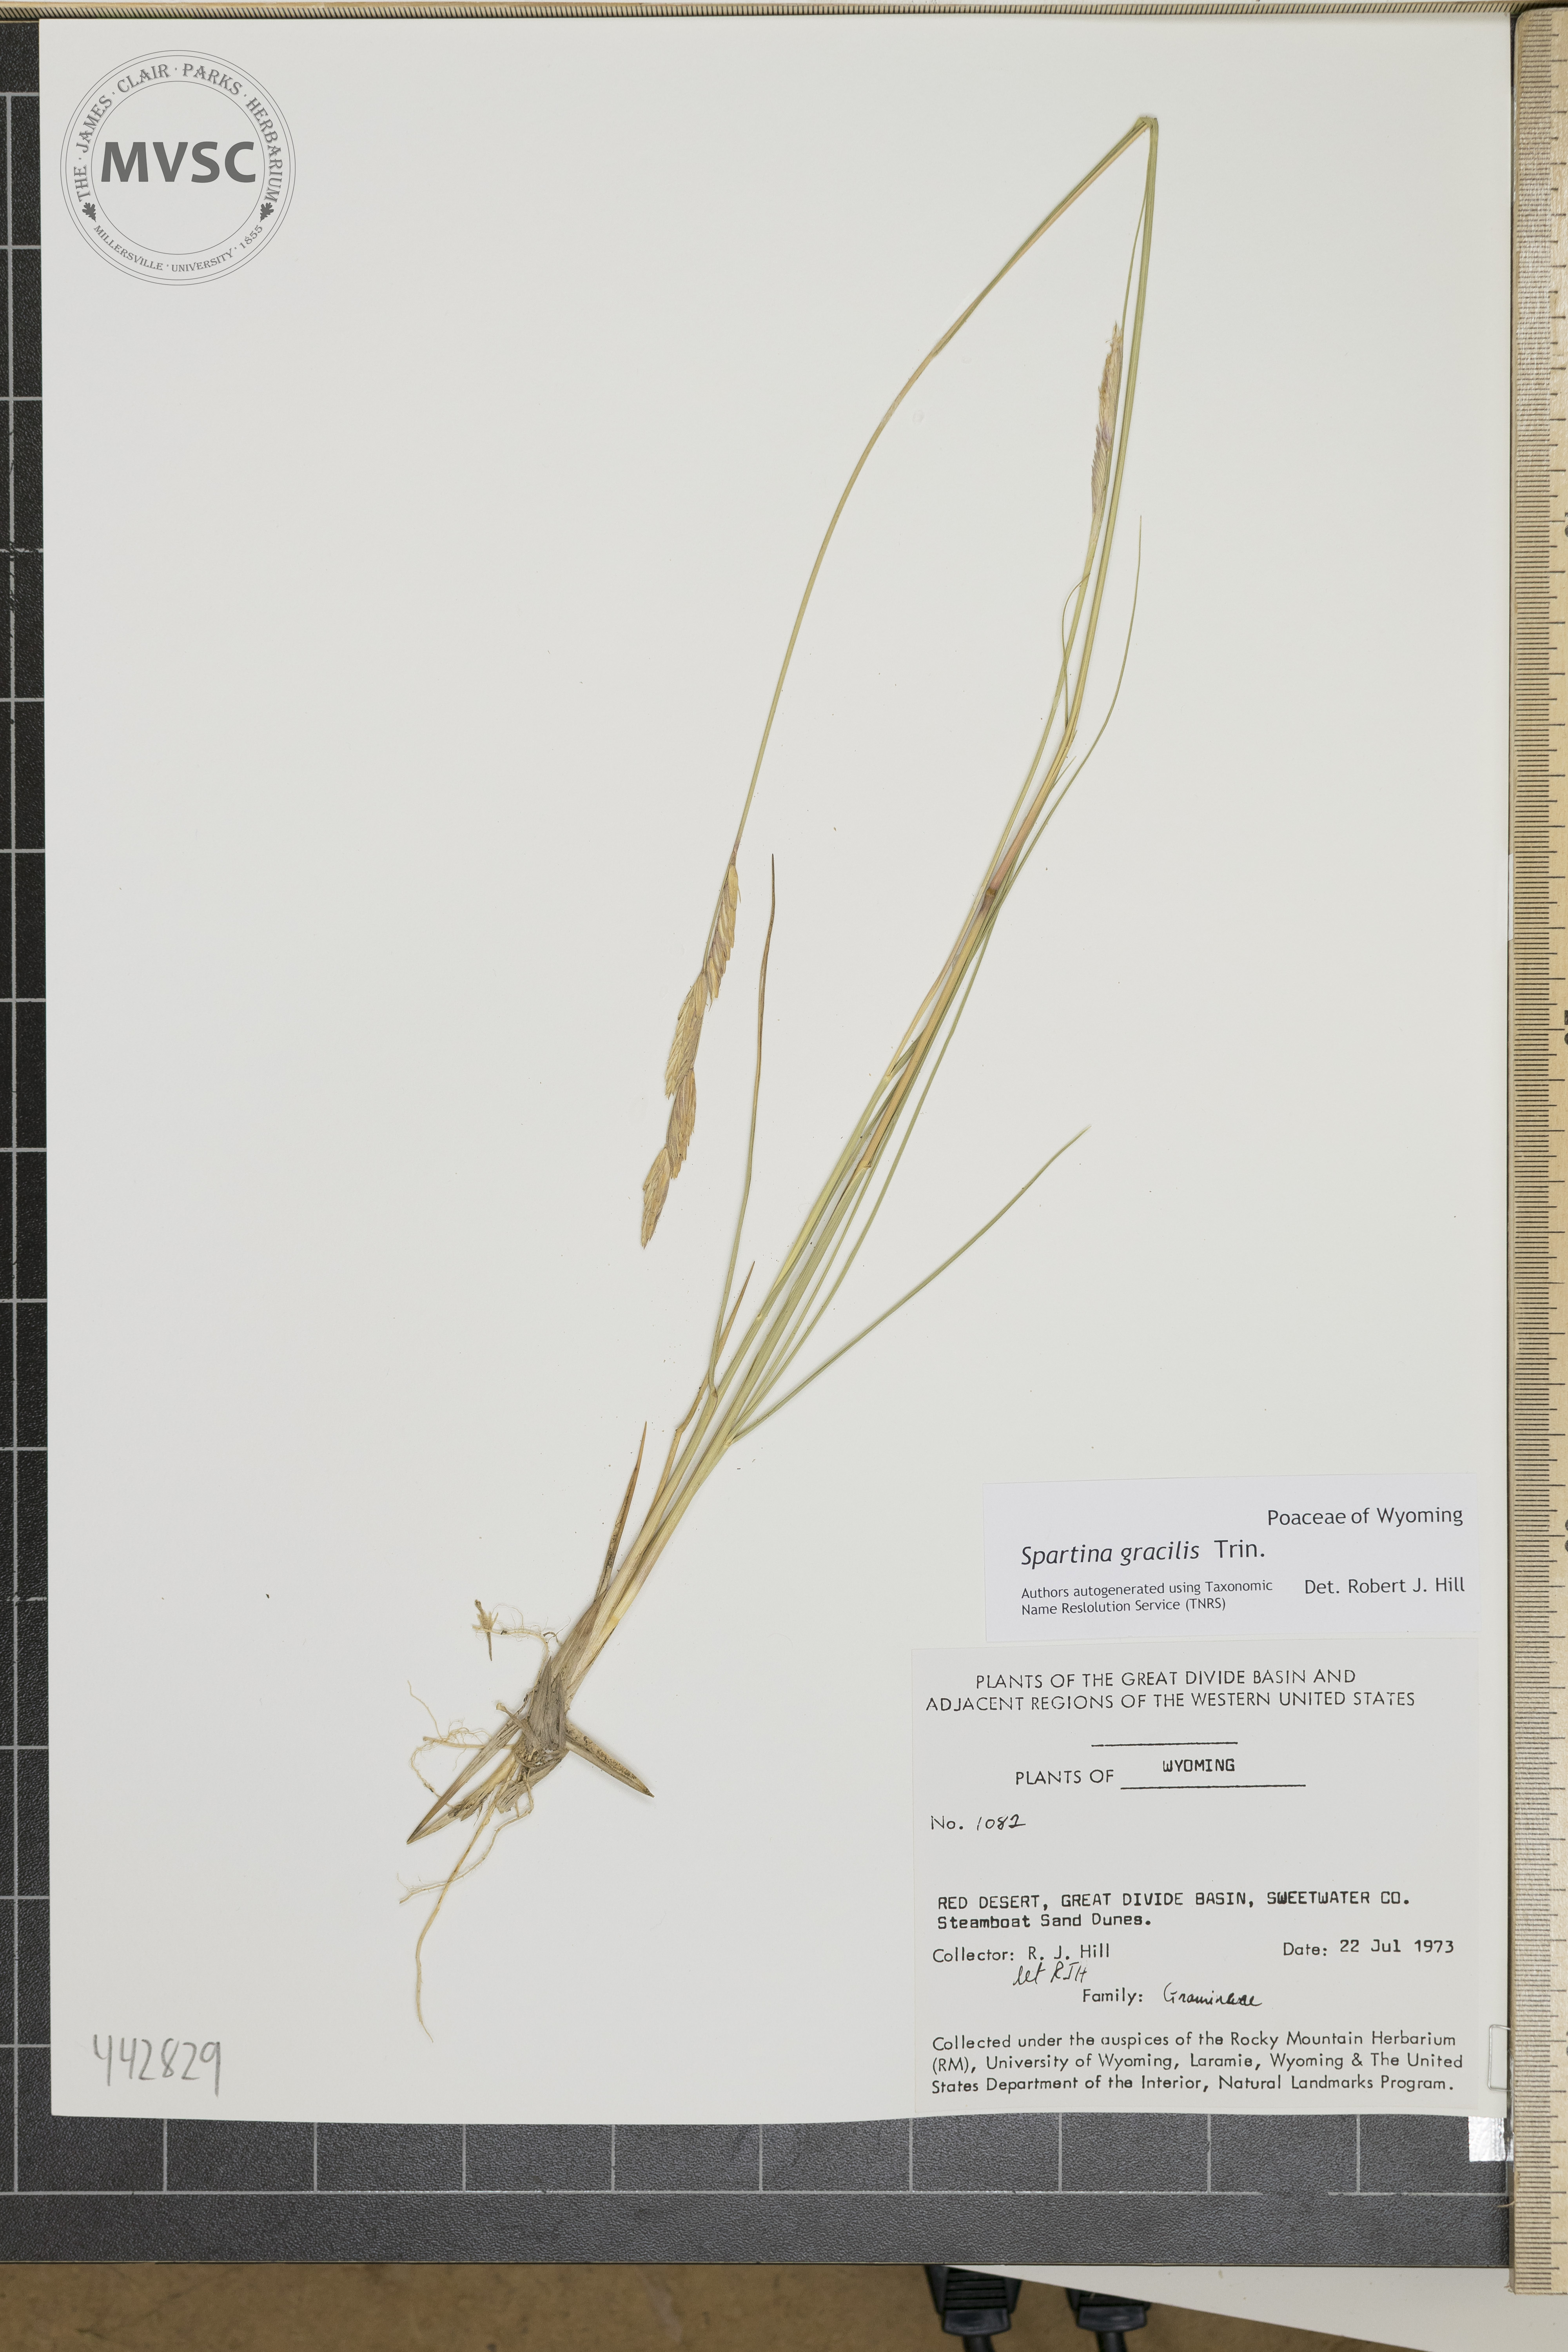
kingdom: Plantae
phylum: Tracheophyta
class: Liliopsida
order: Poales
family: Poaceae
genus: Sporobolus
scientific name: Sporobolus hookerianus
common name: Alkali cordgrass
